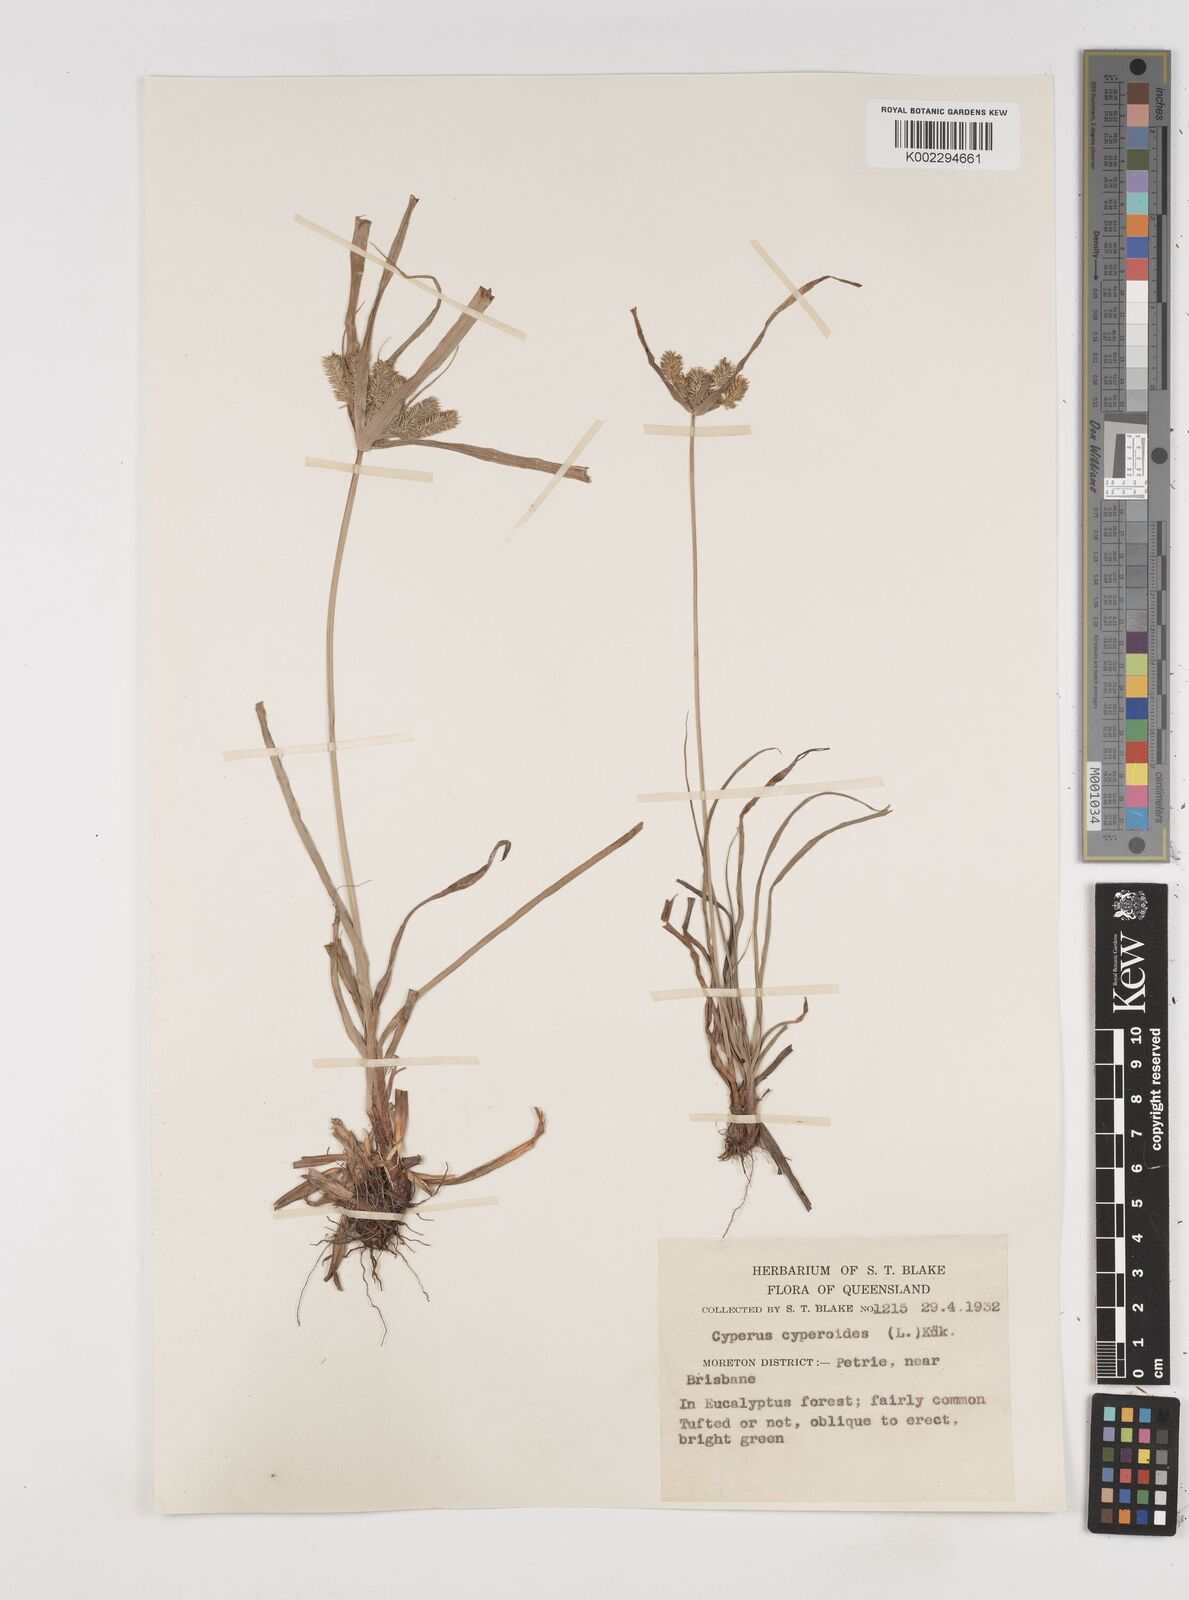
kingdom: Plantae
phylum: Tracheophyta
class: Liliopsida
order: Poales
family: Cyperaceae
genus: Cyperus
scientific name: Cyperus cyperoides
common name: Pacific island flat sedge
